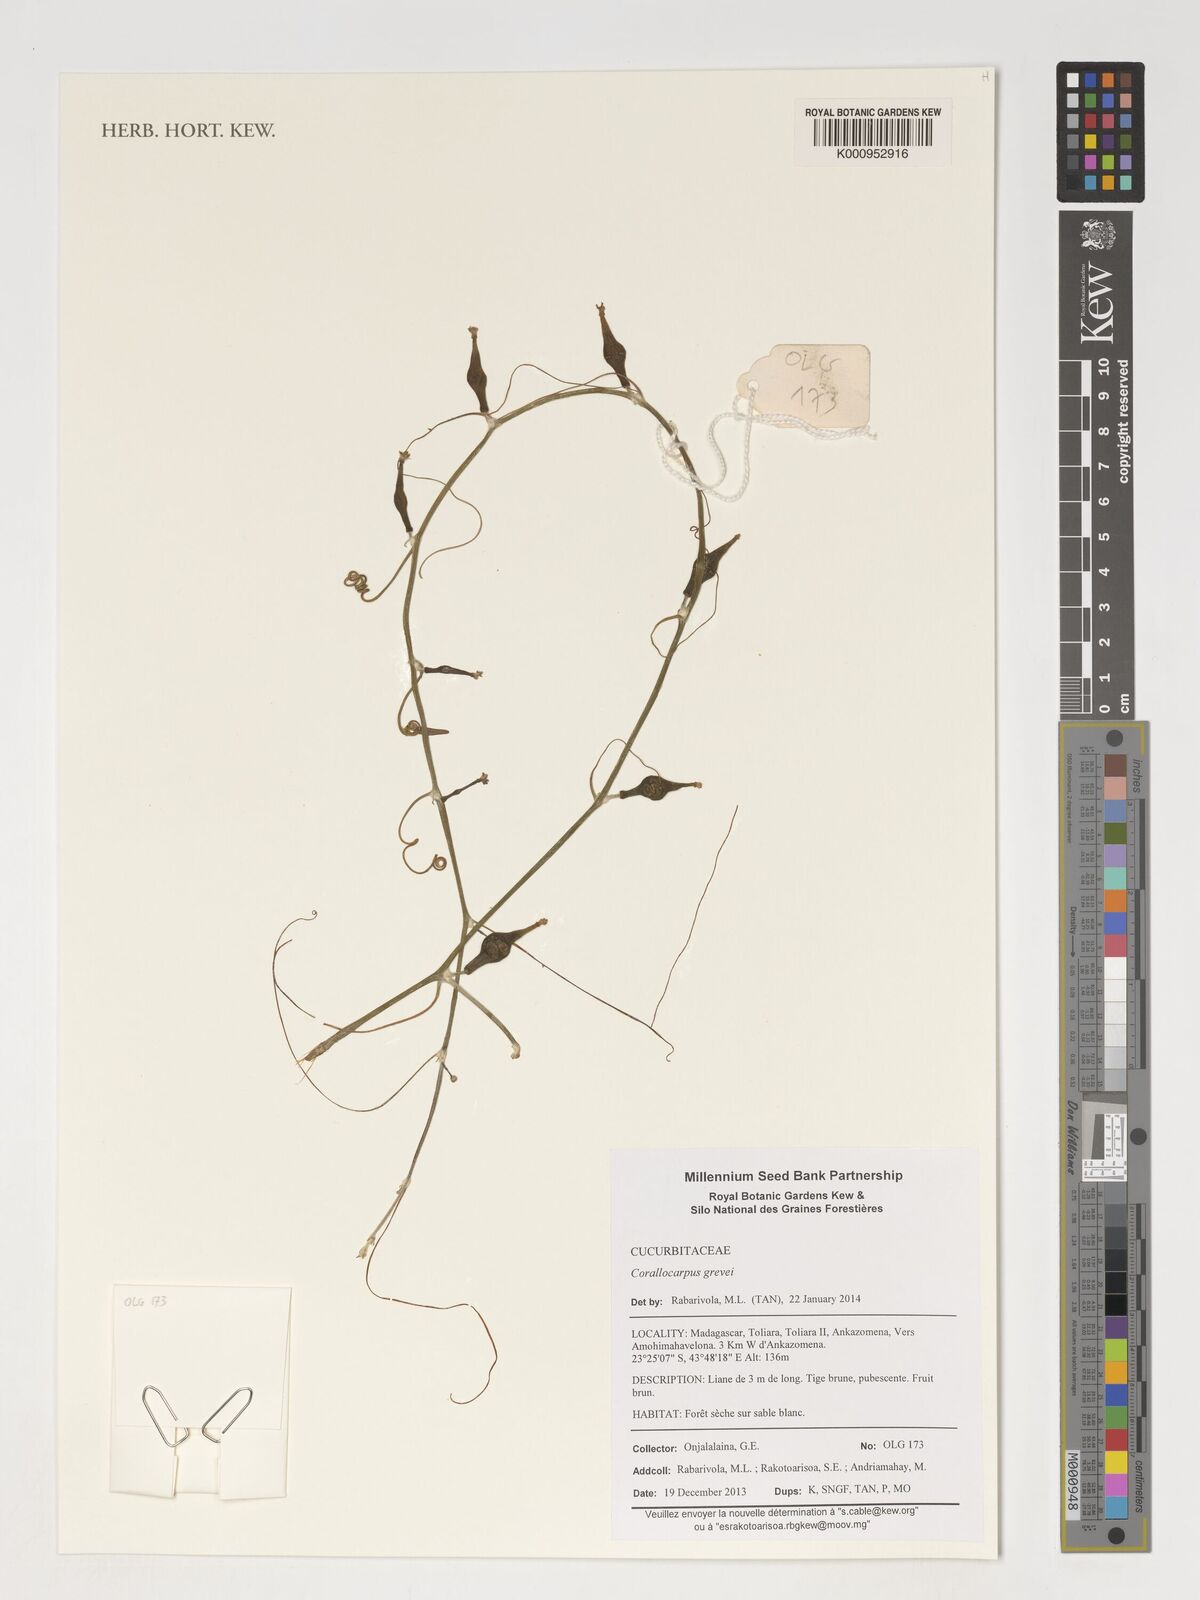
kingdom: Plantae
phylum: Tracheophyta
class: Magnoliopsida
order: Cucurbitales
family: Cucurbitaceae
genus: Corallocarpus
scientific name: Corallocarpus grevei
